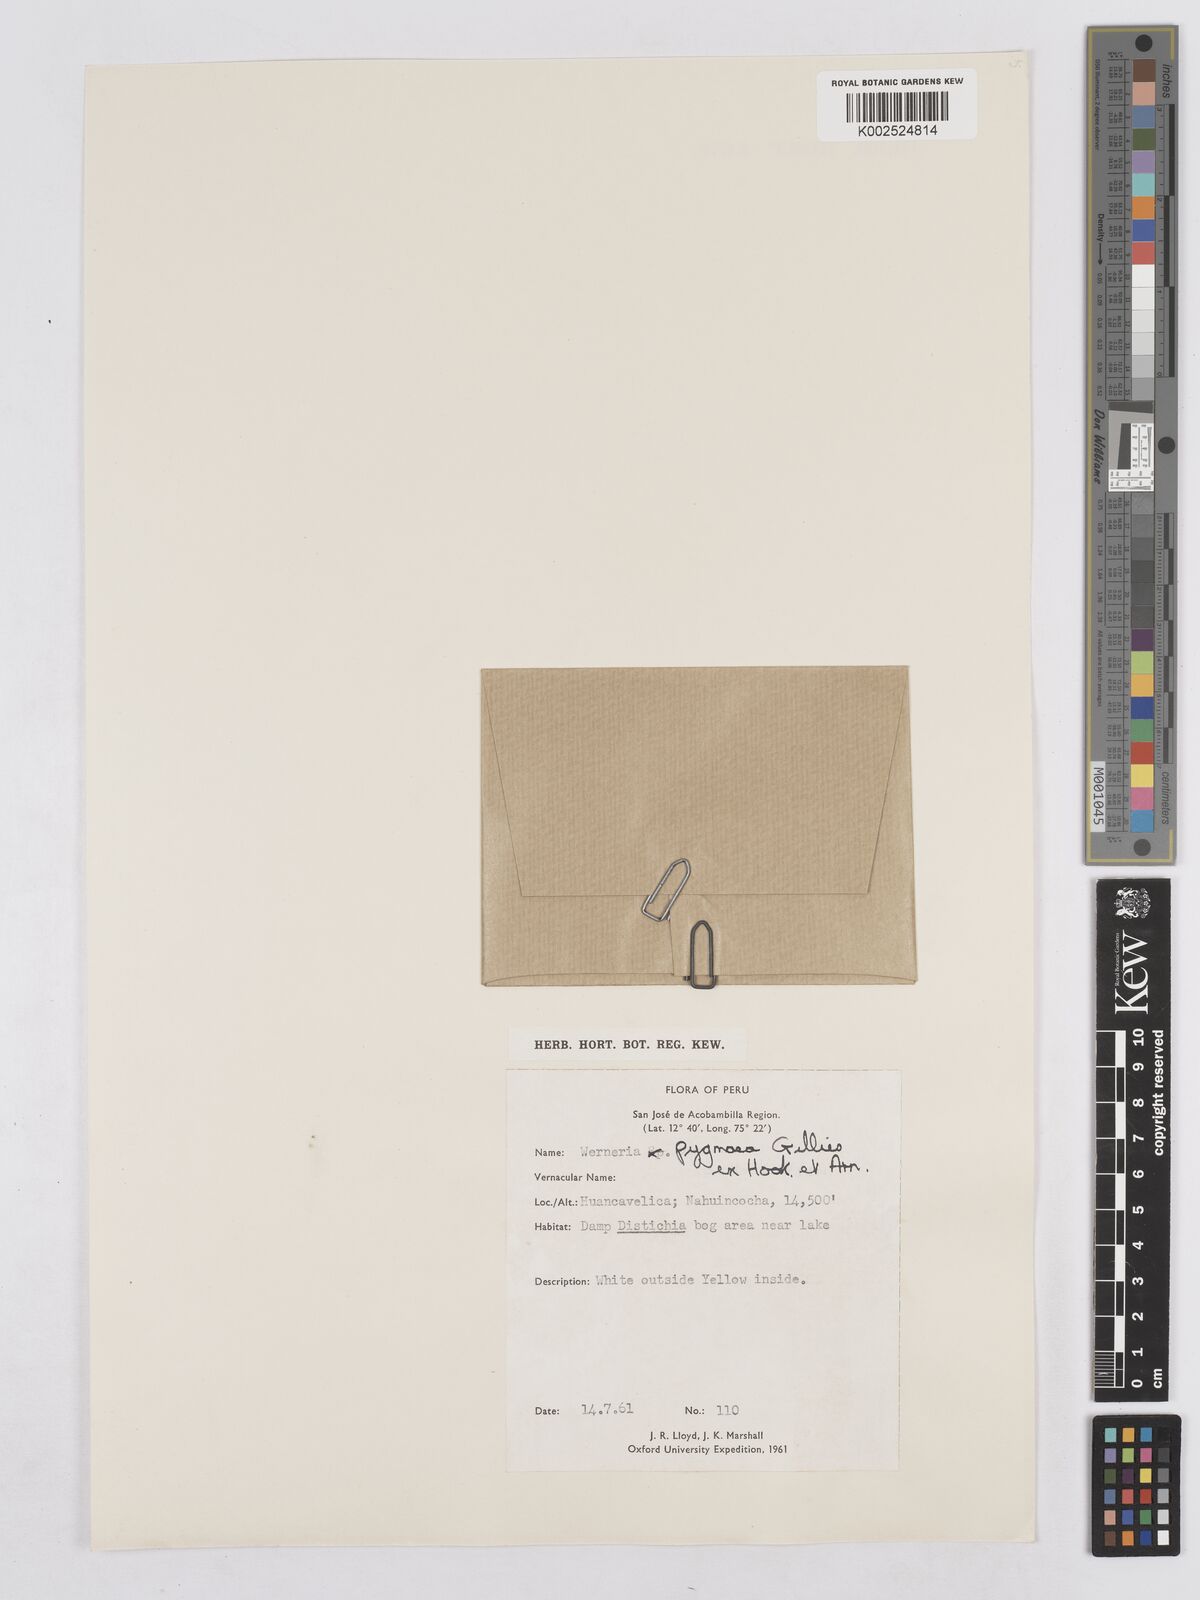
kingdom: Plantae
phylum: Tracheophyta
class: Magnoliopsida
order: Asterales
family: Asteraceae
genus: Rockhausenia
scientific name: Rockhausenia pygmaea
